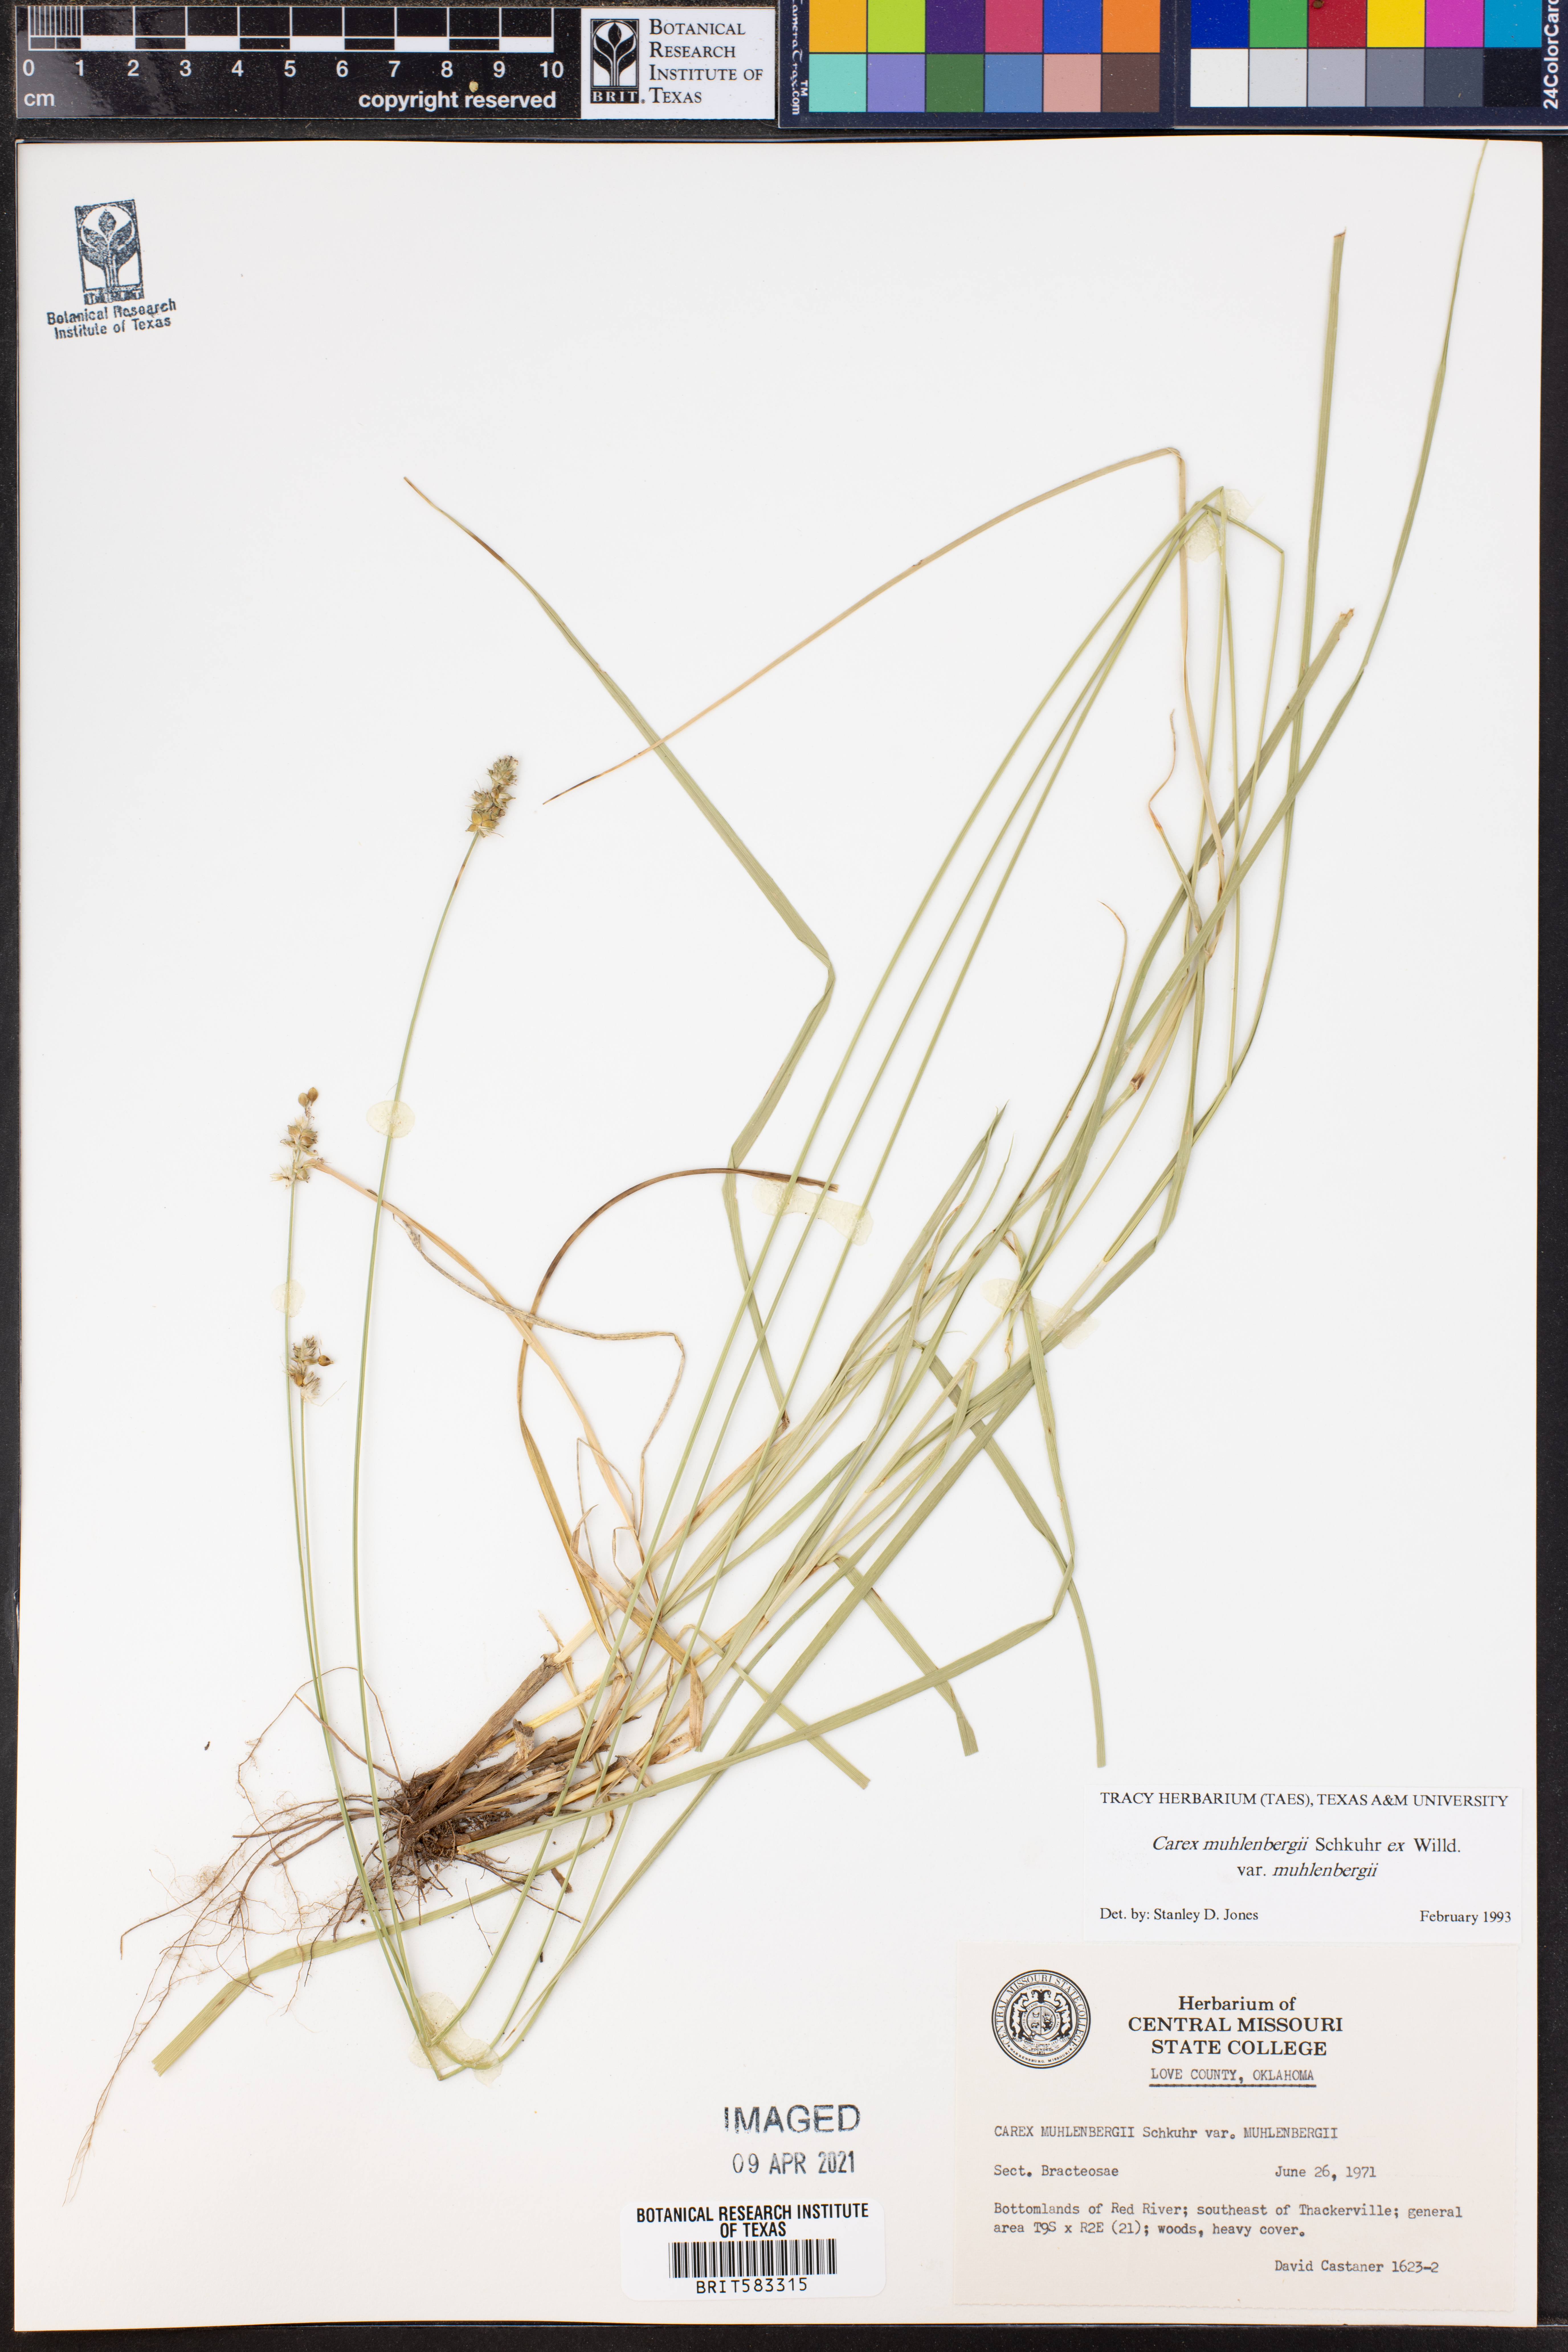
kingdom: Plantae
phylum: Tracheophyta
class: Liliopsida
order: Poales
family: Cyperaceae
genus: Carex
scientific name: Carex vulpinoidea
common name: American fox-sedge
